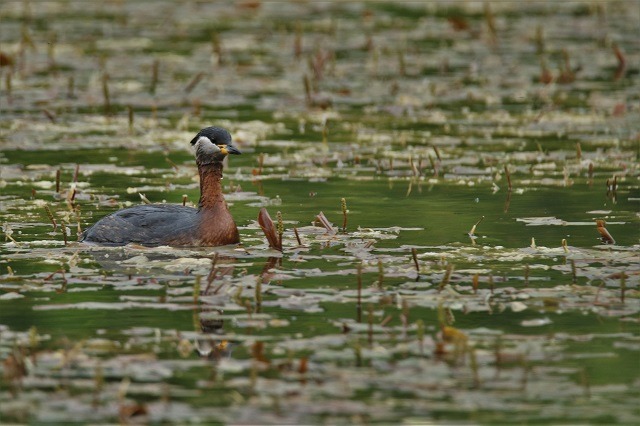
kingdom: Animalia
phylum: Chordata
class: Aves
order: Podicipediformes
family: Podicipedidae
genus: Podiceps
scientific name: Podiceps grisegena
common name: Gråstrubet lappedykker
